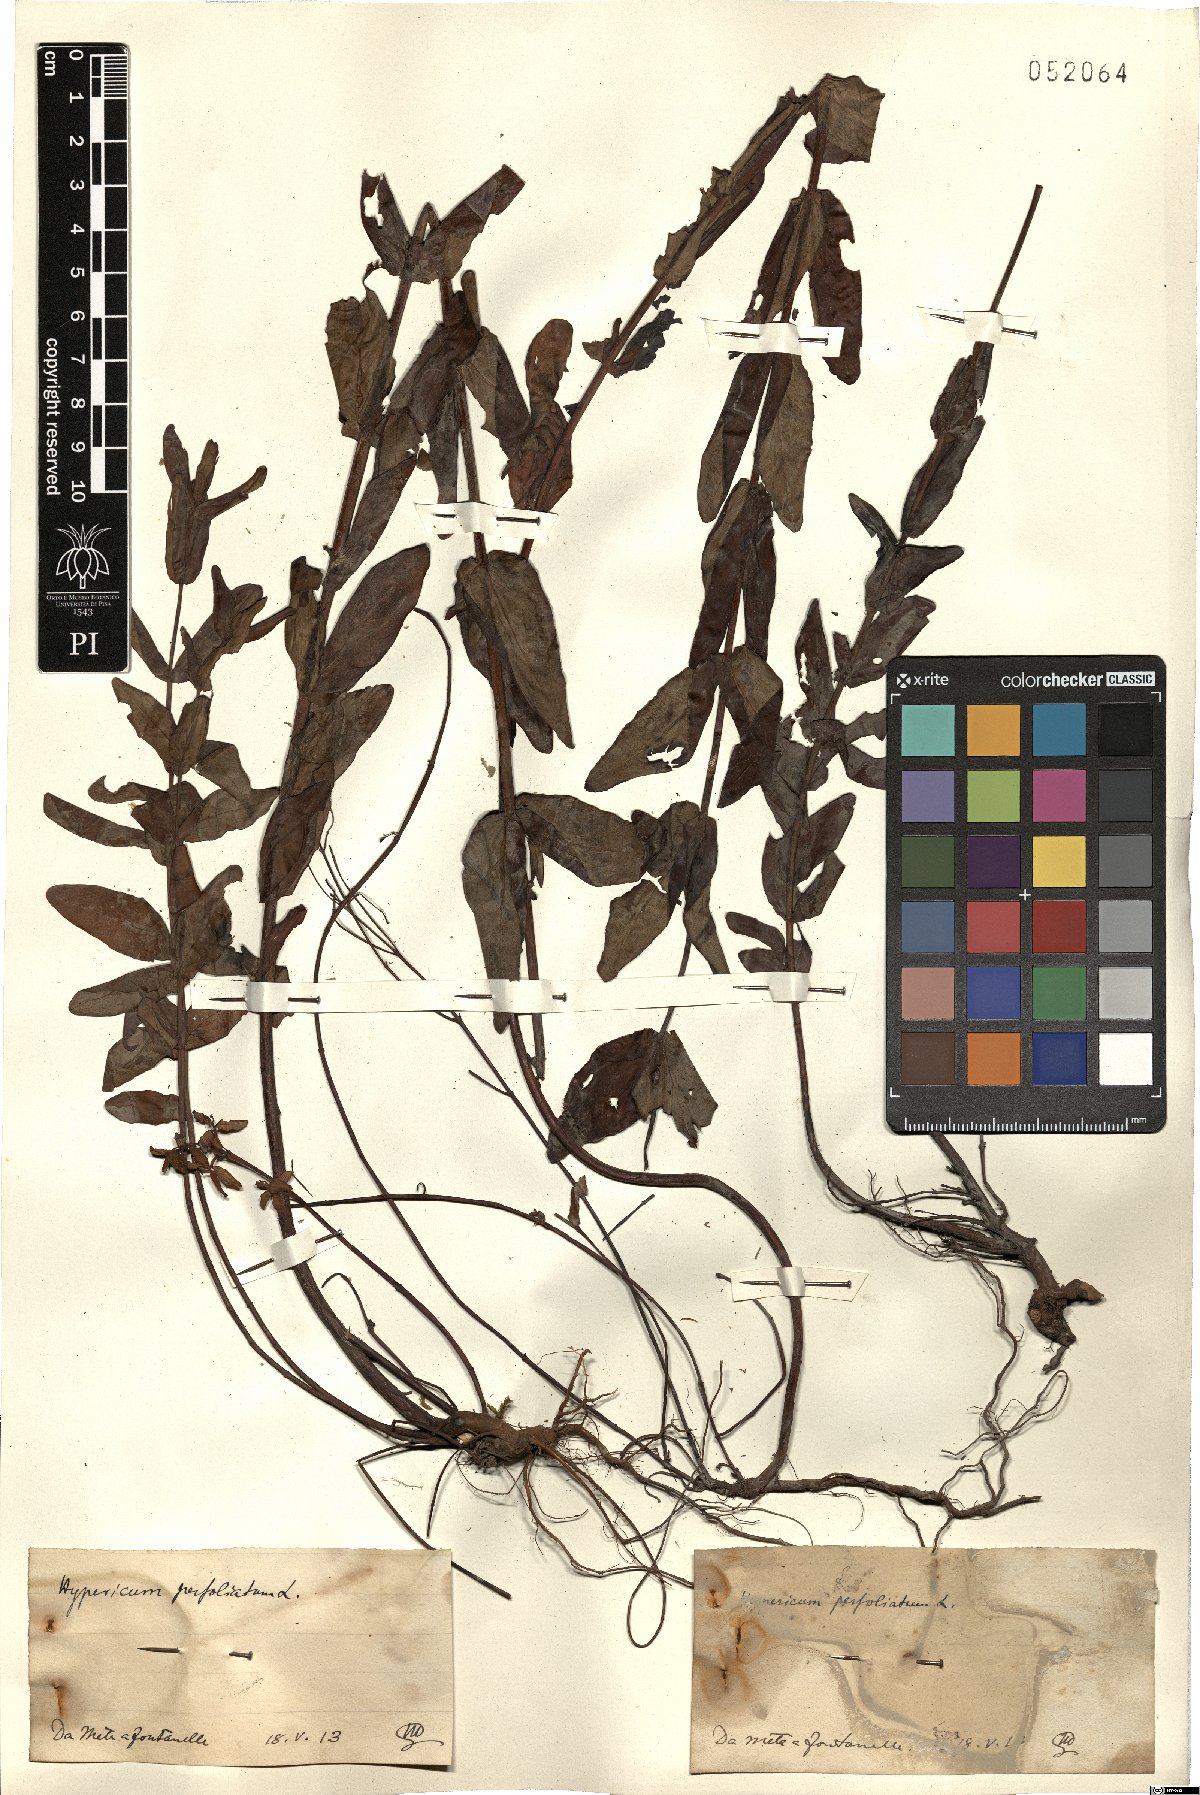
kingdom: Plantae
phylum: Tracheophyta
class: Magnoliopsida
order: Malpighiales
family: Hypericaceae
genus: Hypericum
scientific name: Hypericum perfoliatum
